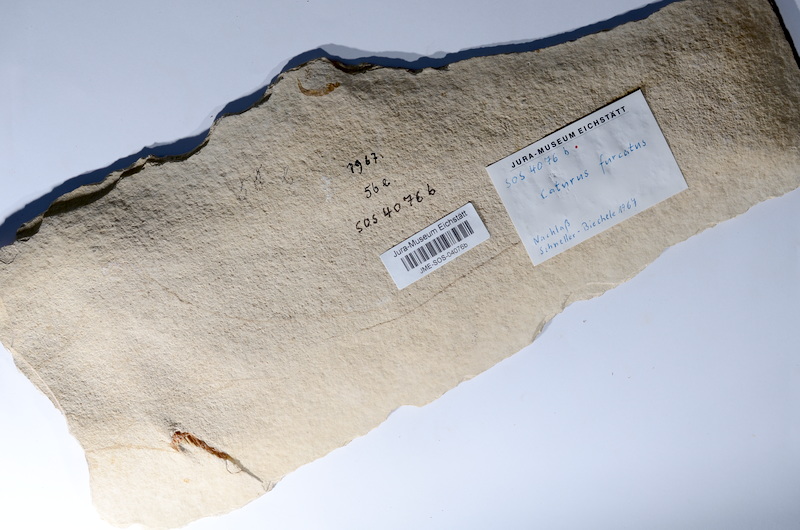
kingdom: Animalia
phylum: Chordata
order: Amiiformes
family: Caturidae
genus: Caturus
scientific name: Caturus furcatus
